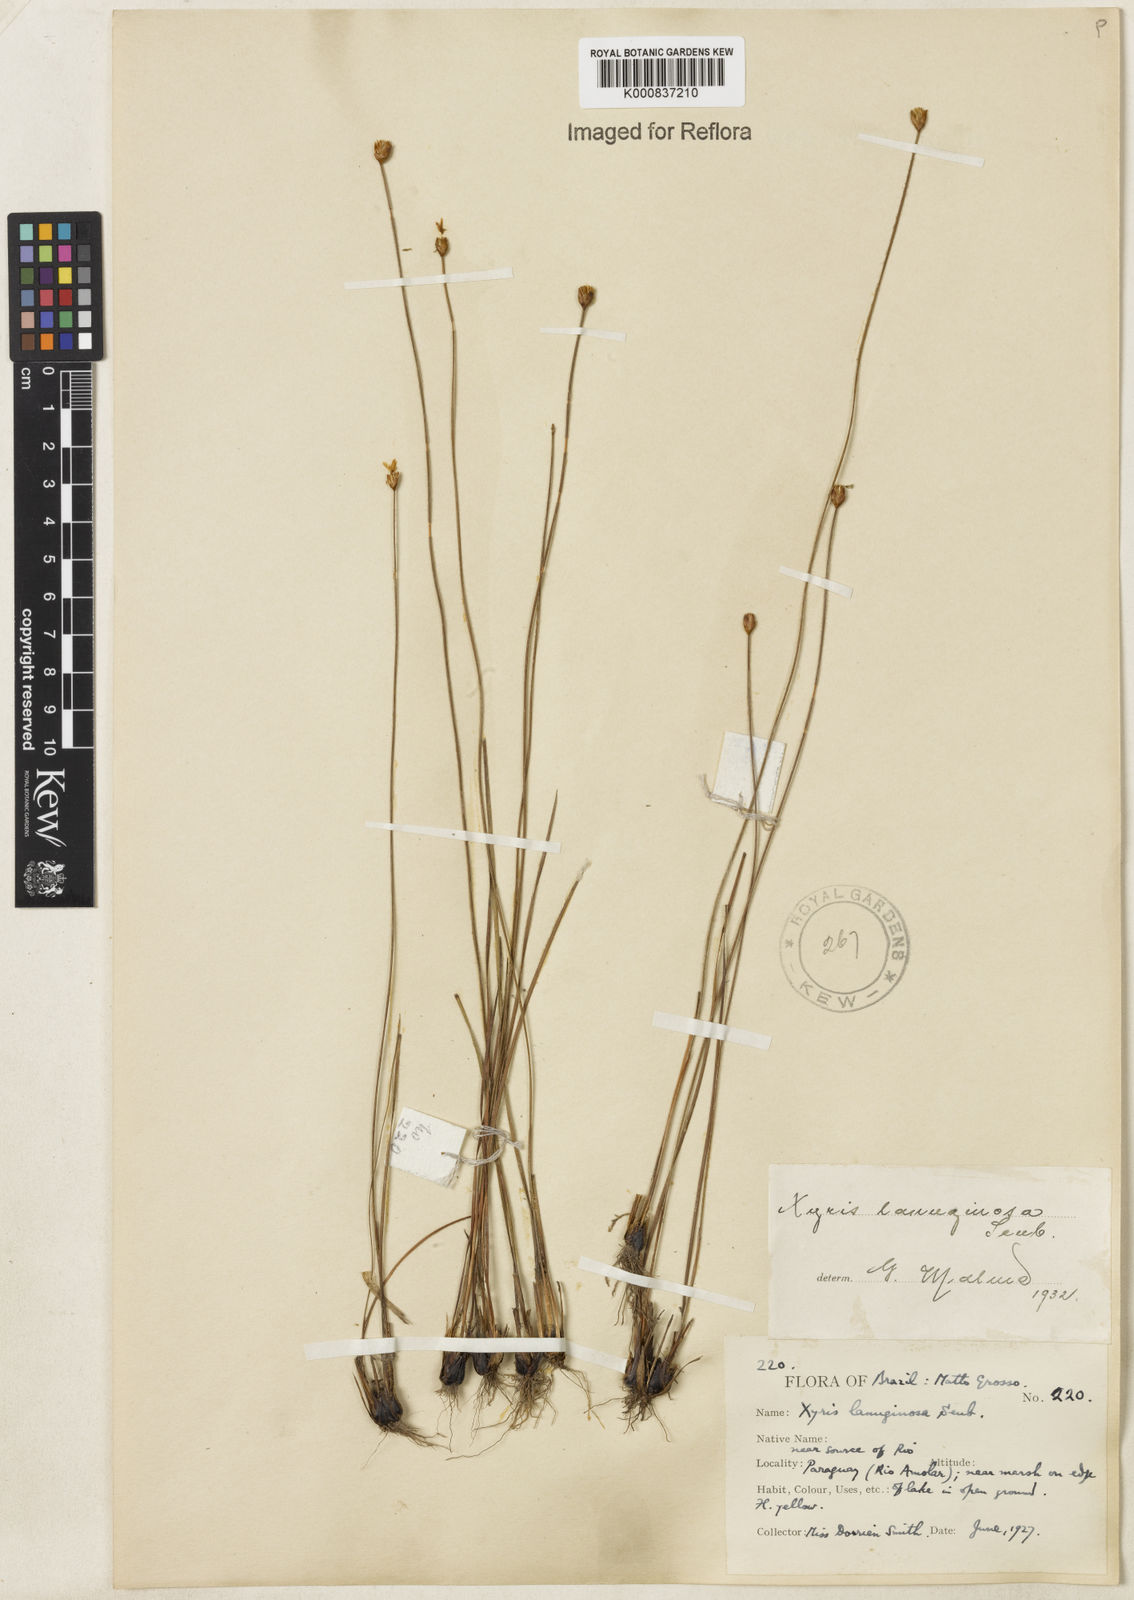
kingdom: Plantae
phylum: Tracheophyta
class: Liliopsida
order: Poales
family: Xyridaceae
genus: Xyris
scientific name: Xyris lanuginosa
